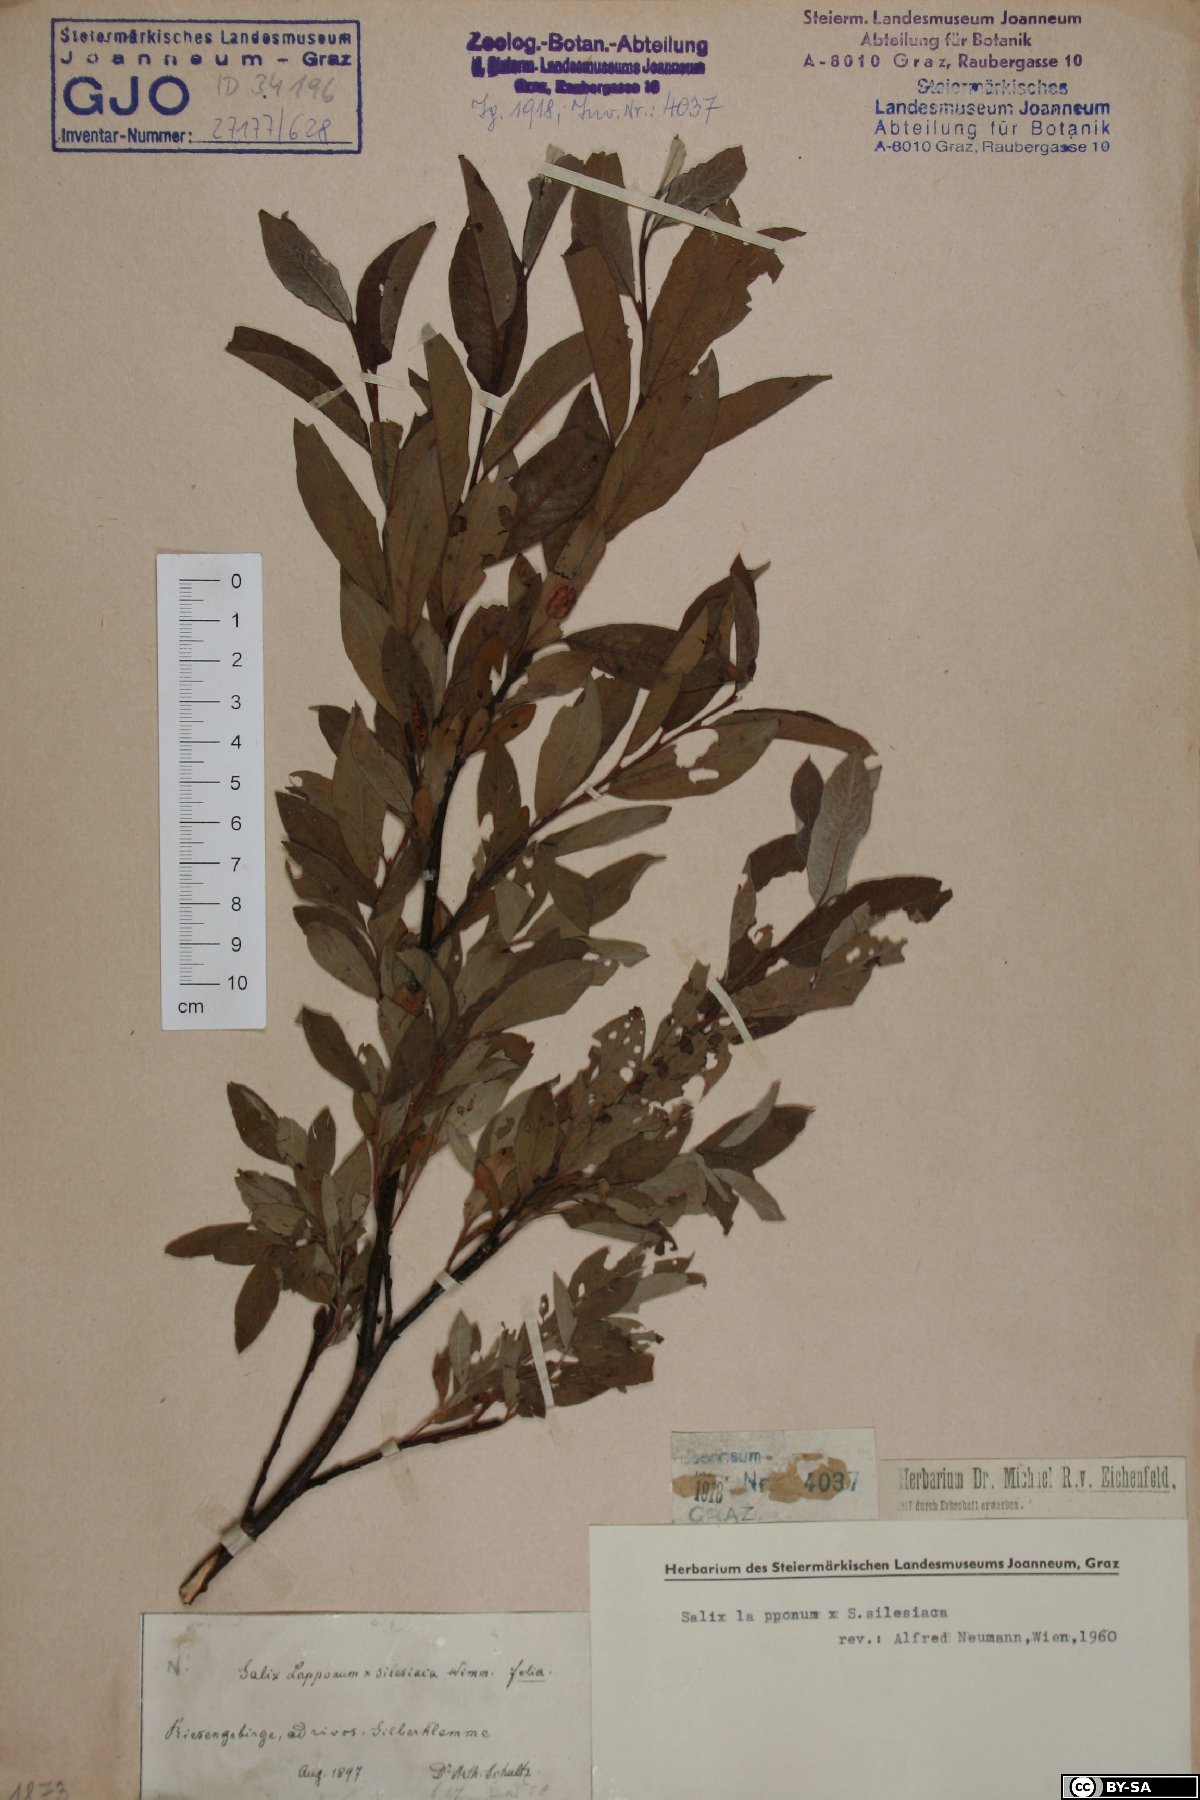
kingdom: Plantae
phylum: Tracheophyta
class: Magnoliopsida
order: Malpighiales
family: Salicaceae
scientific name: Salicaceae
